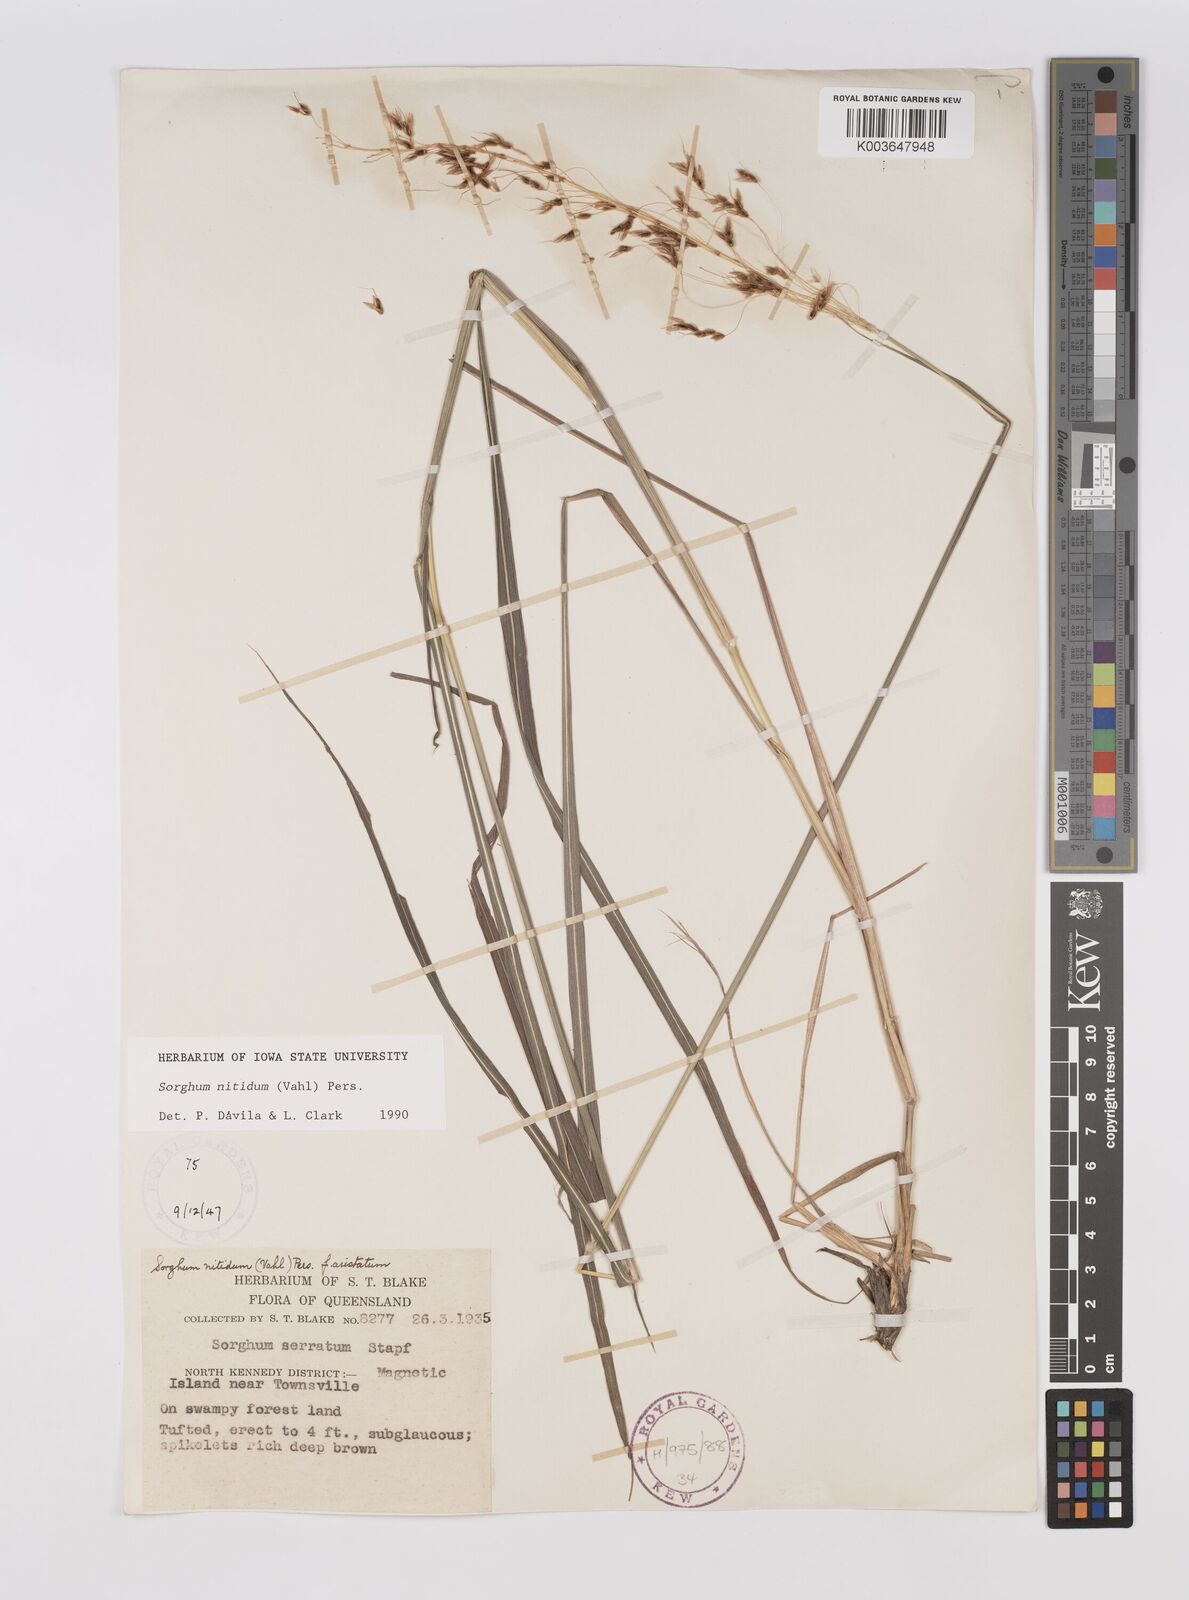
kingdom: Plantae
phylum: Tracheophyta
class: Liliopsida
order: Poales
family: Poaceae
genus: Sorghum
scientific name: Sorghum nitidum
